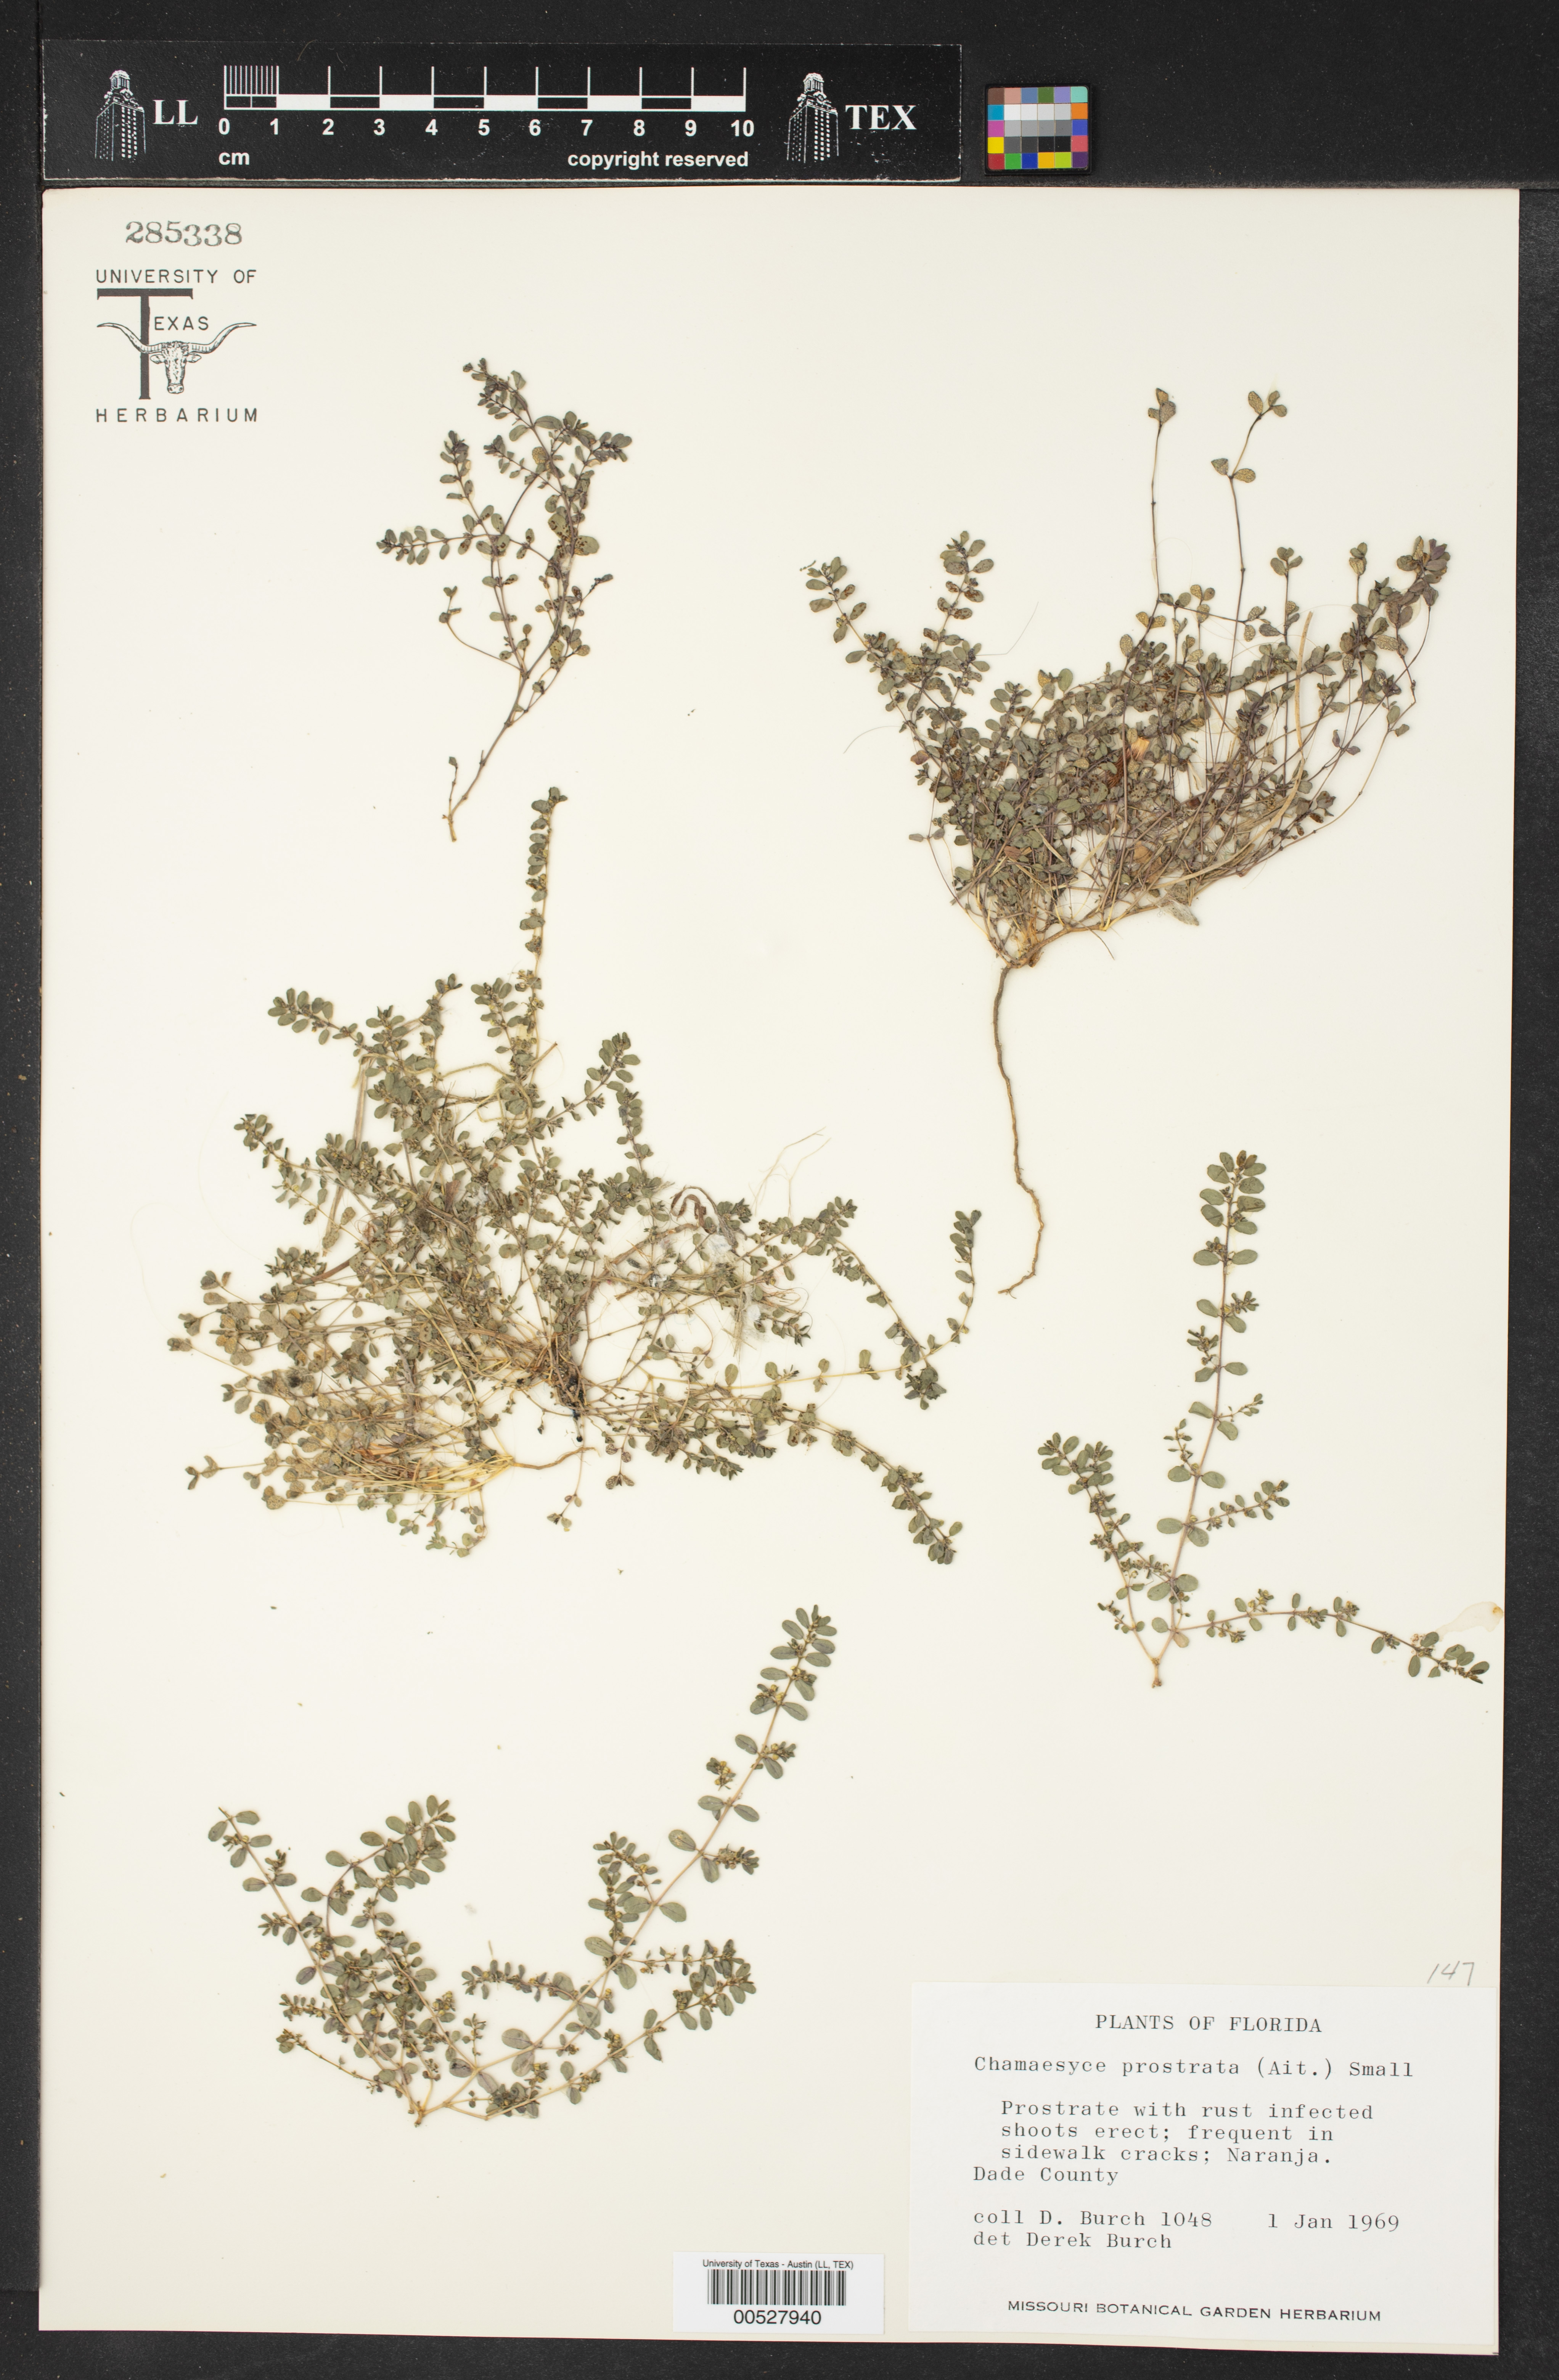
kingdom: Plantae
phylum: Tracheophyta
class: Magnoliopsida
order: Malpighiales
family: Euphorbiaceae
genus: Euphorbia
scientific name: Euphorbia prostrata
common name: Prostrate sandmat
